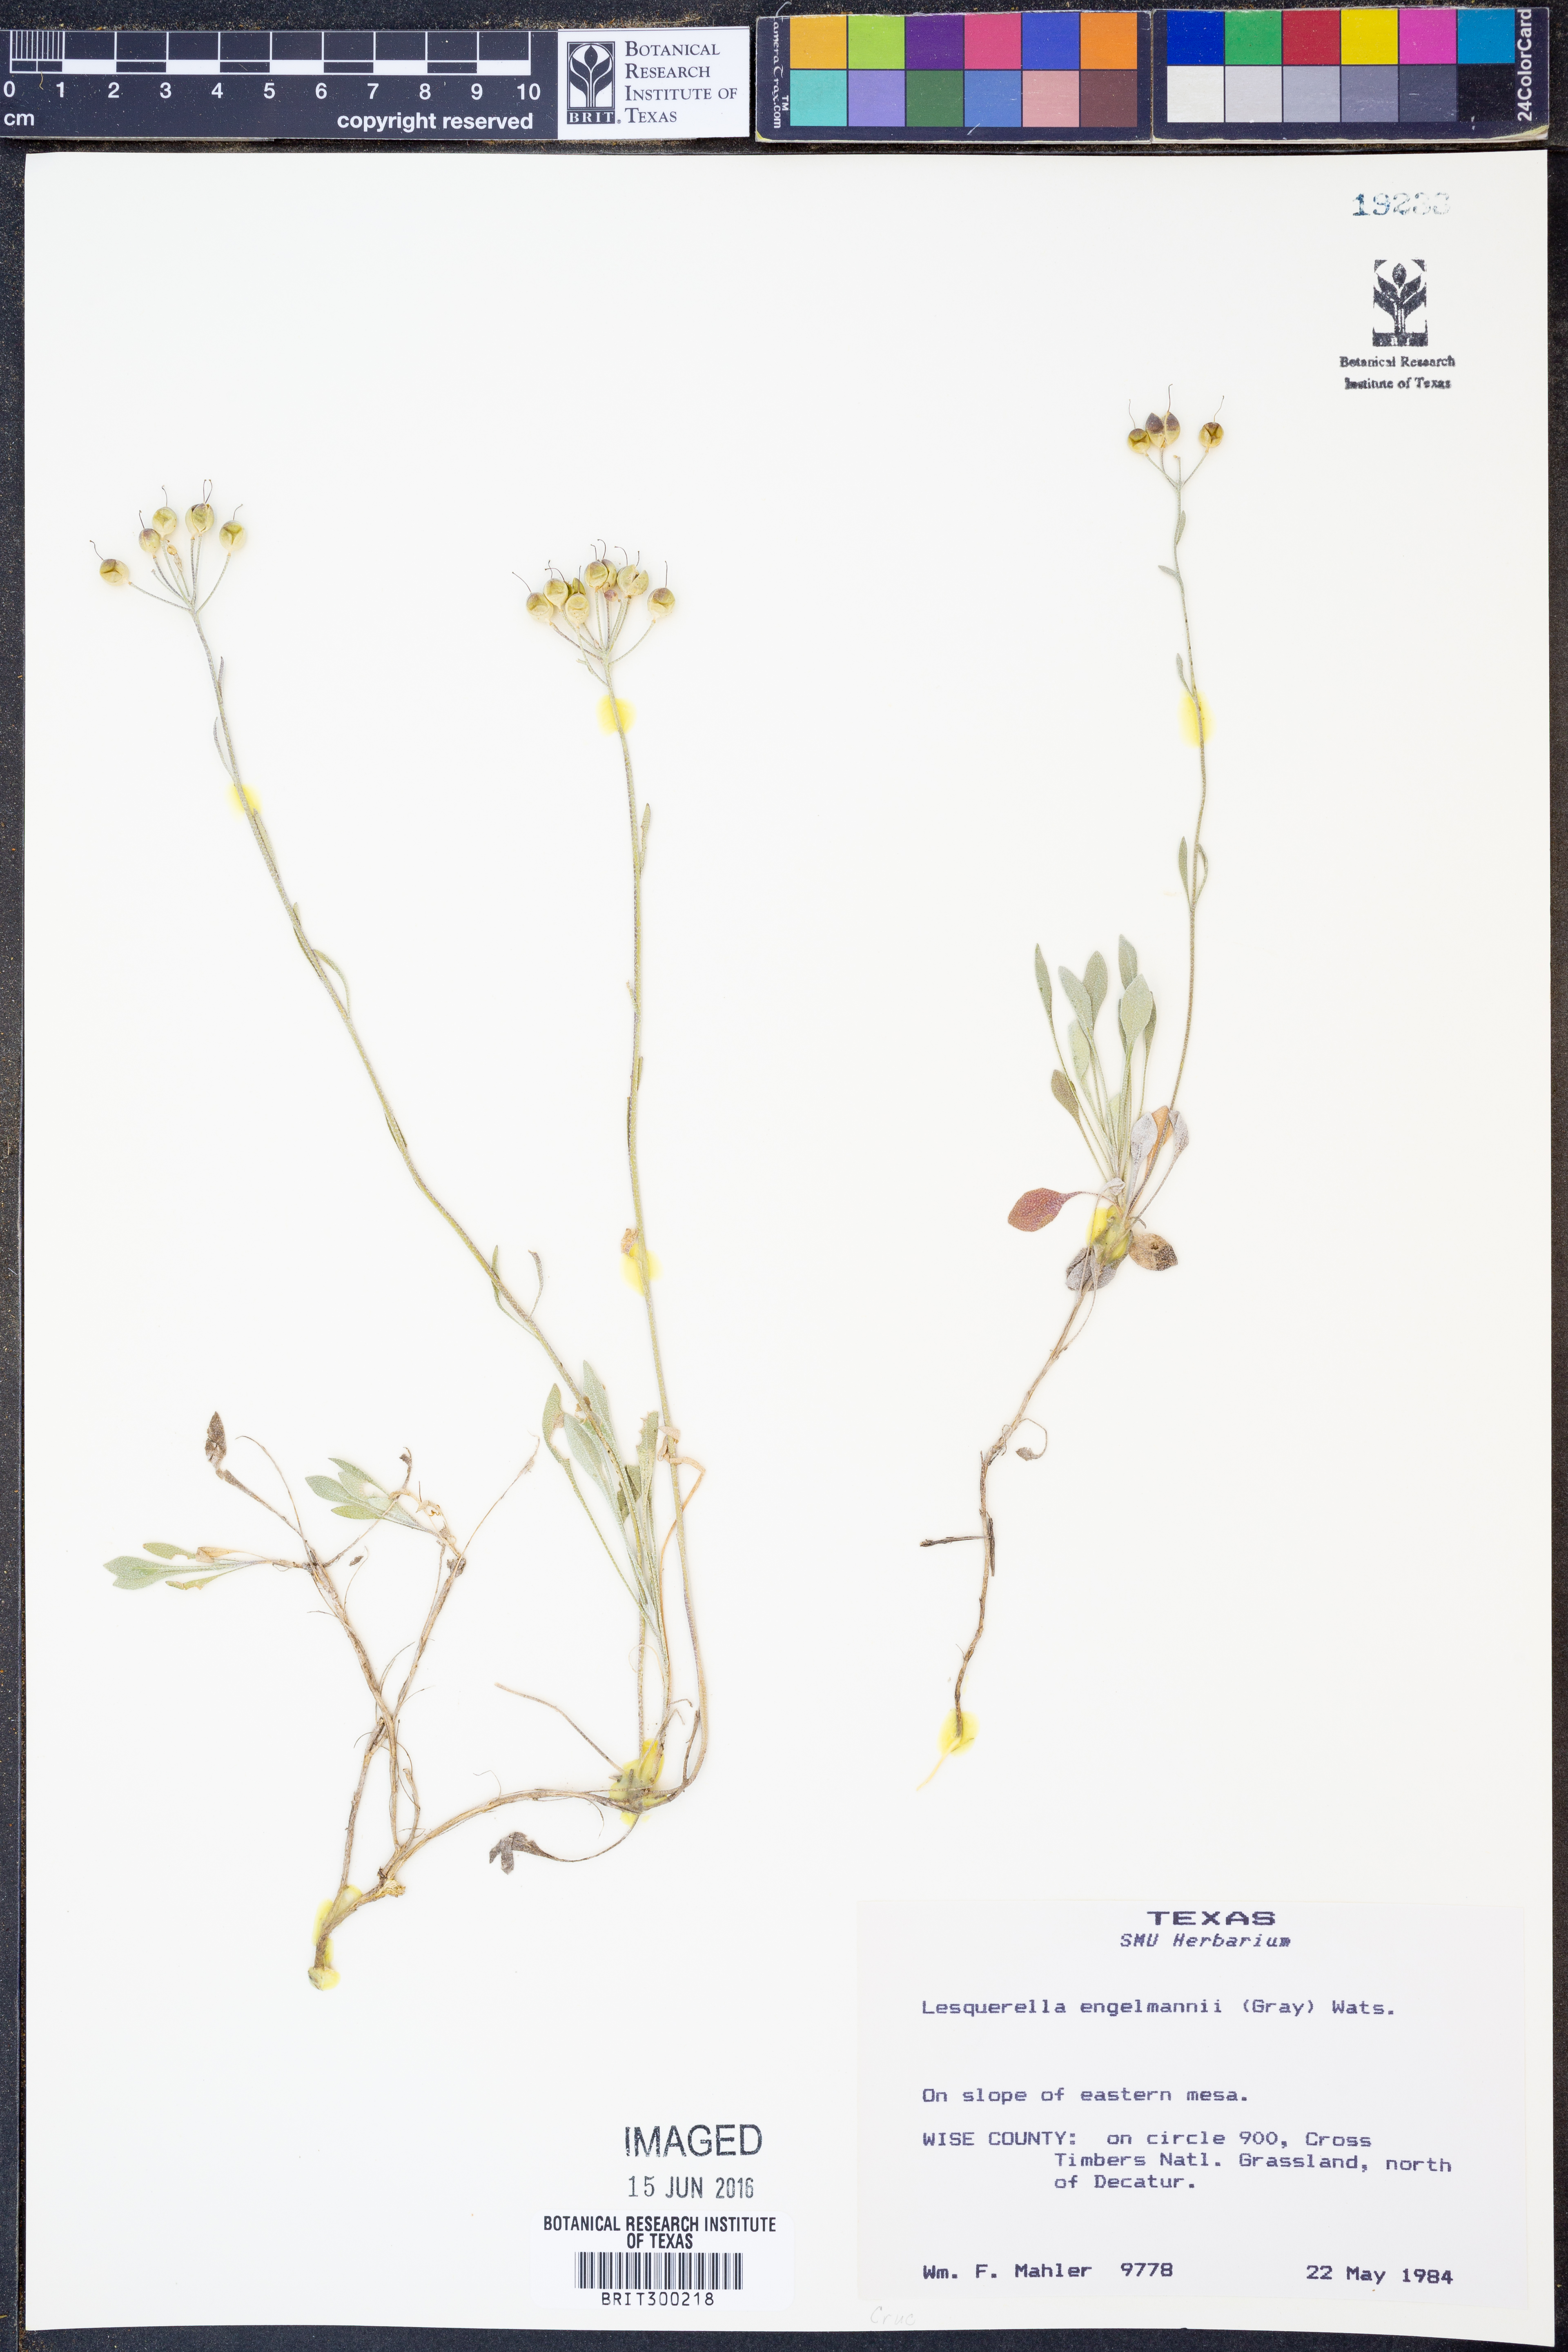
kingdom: Plantae
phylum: Tracheophyta
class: Magnoliopsida
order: Brassicales
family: Brassicaceae
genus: Physaria
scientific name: Physaria engelmannii
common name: Engelmann's bladderpod
